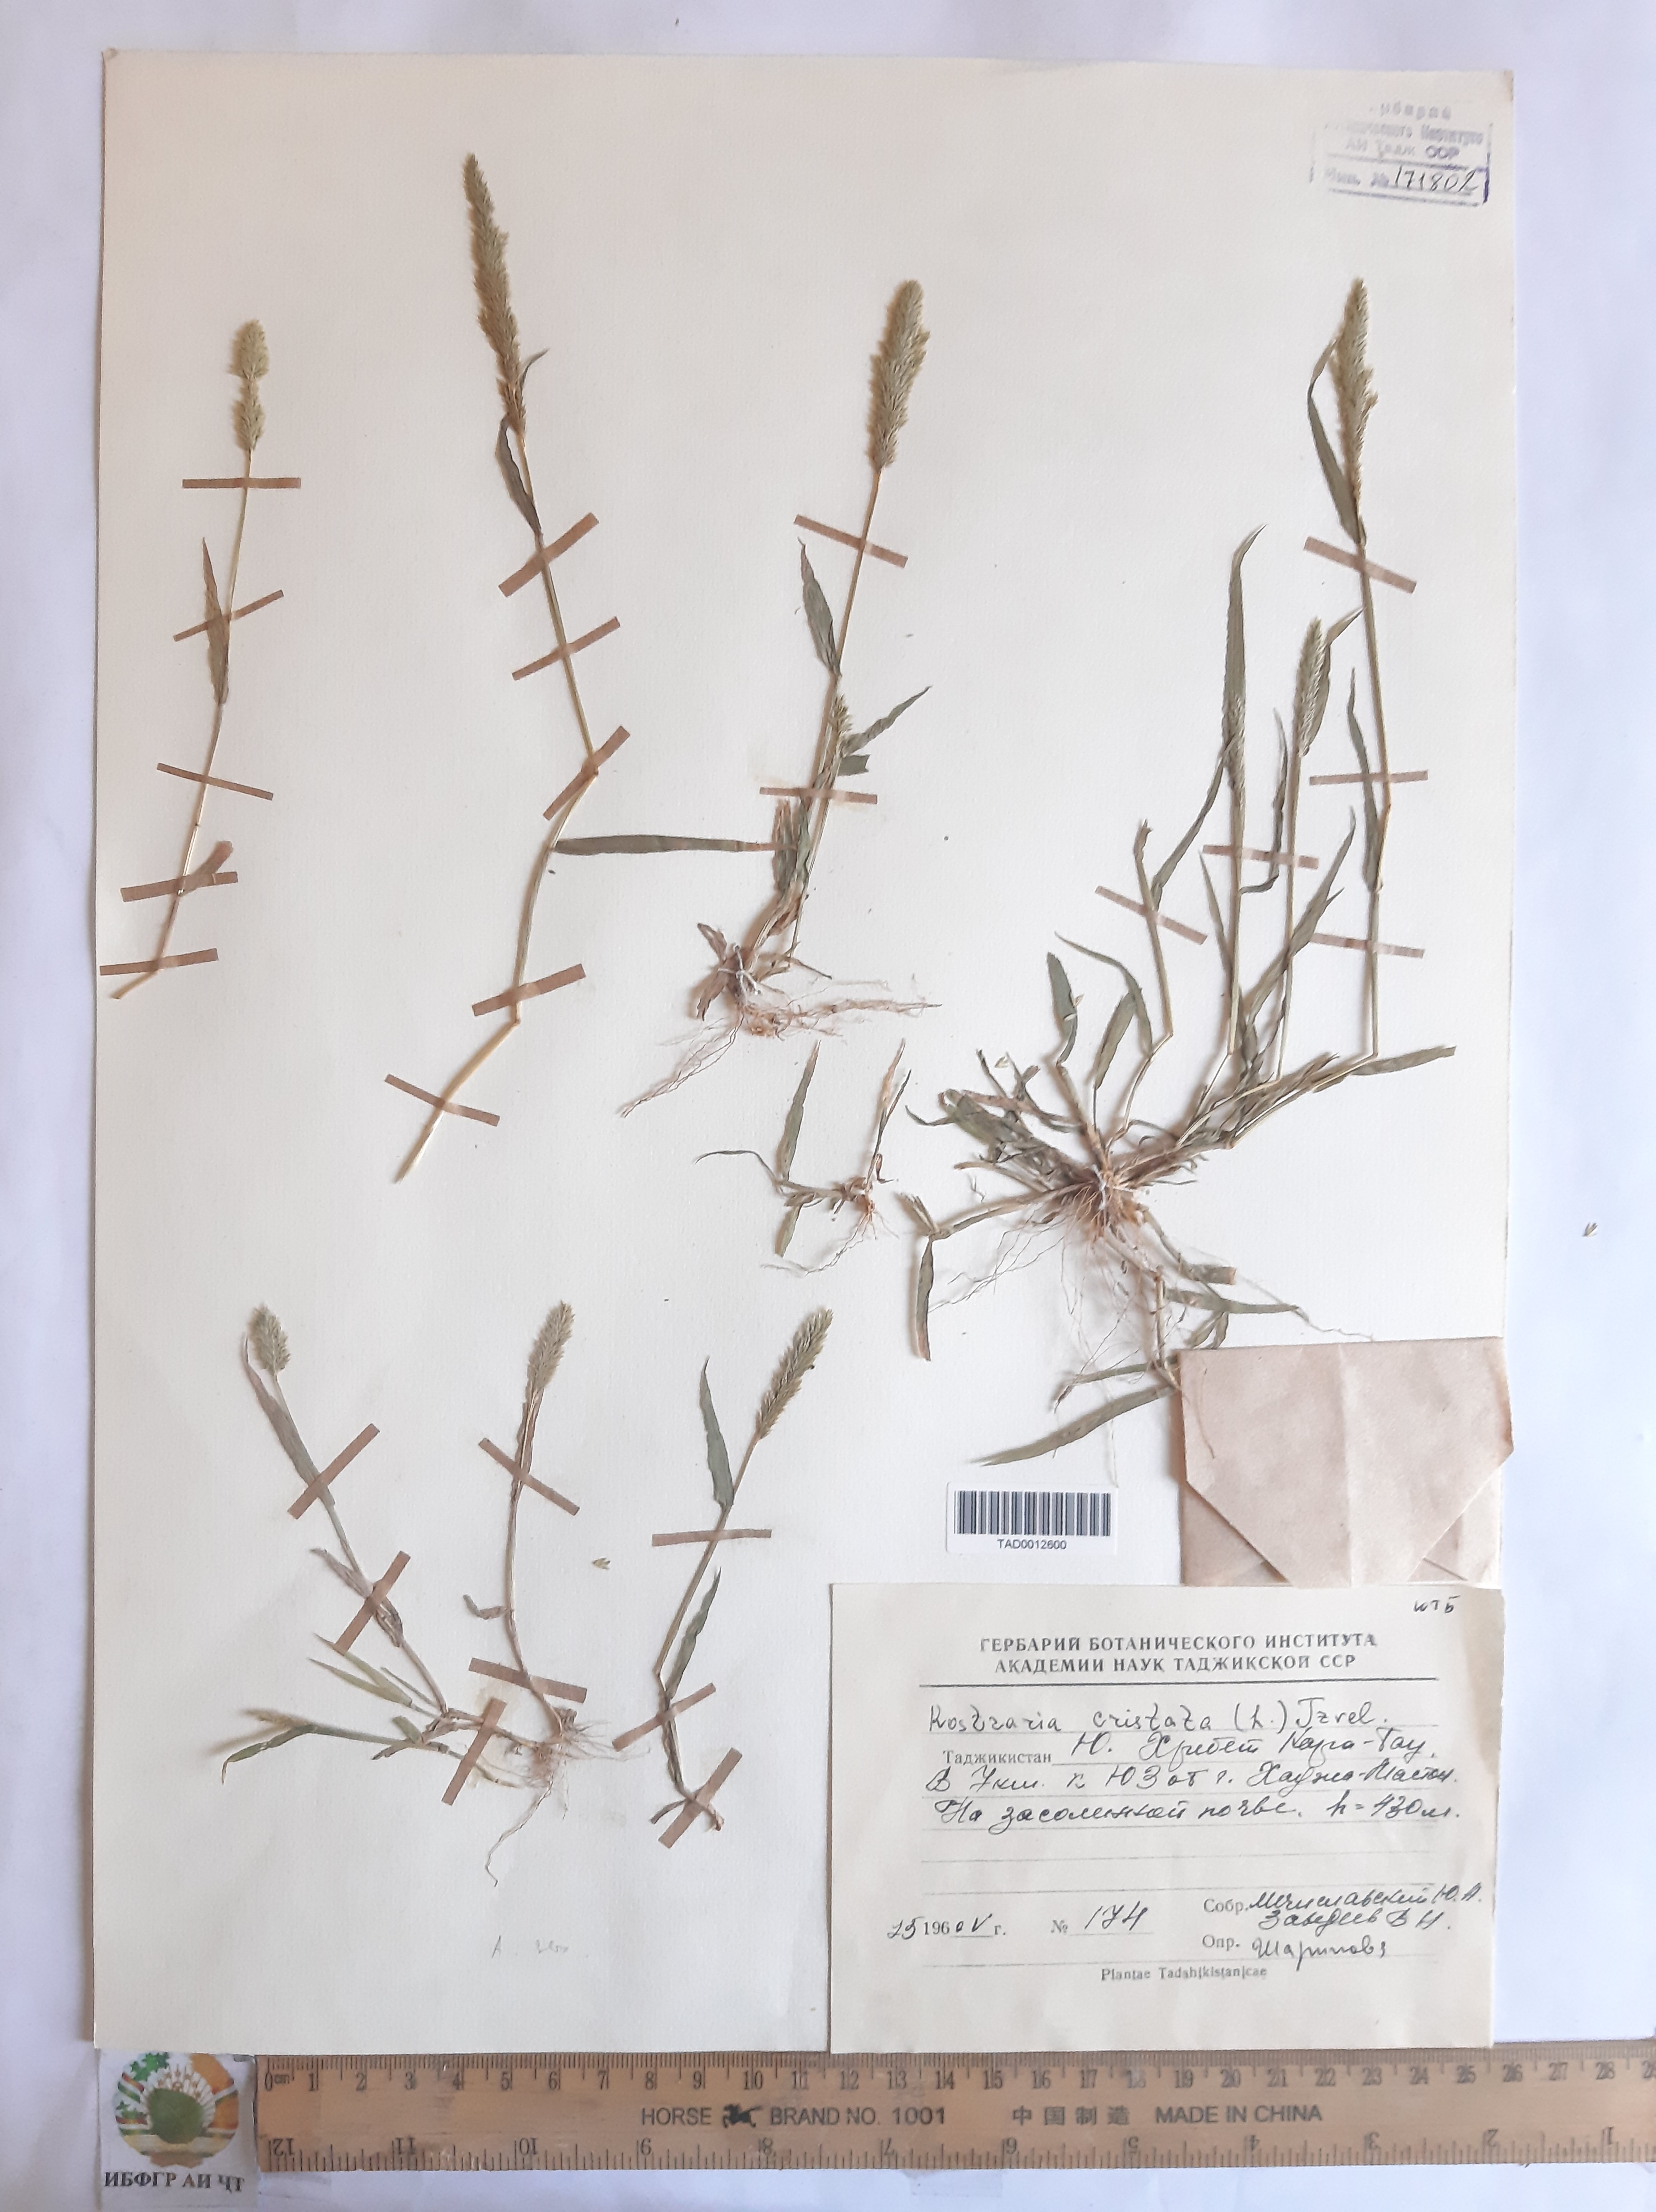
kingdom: Plantae
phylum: Tracheophyta
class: Liliopsida
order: Poales
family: Poaceae
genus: Rostraria
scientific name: Rostraria cristata
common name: Mediterranean hair-grass
